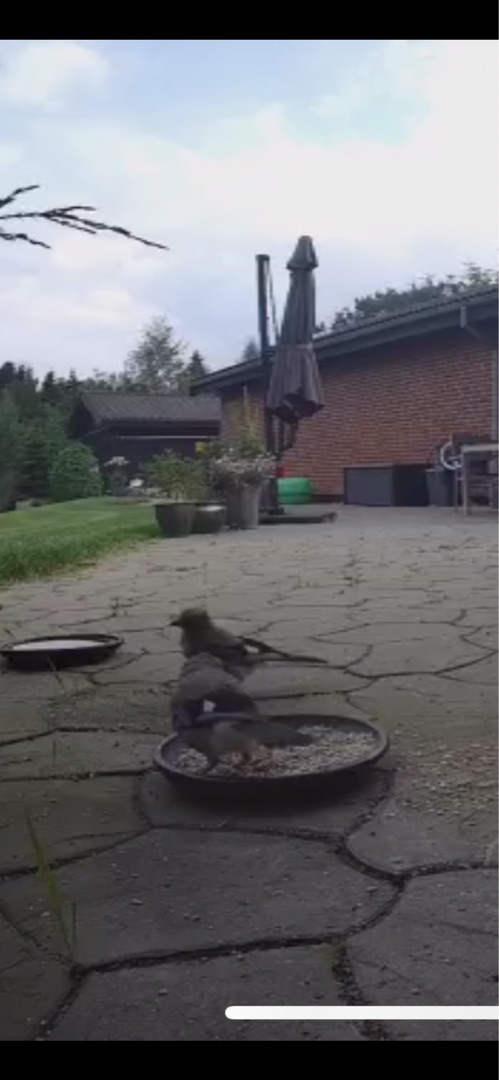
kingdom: Animalia
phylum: Chordata
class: Aves
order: Passeriformes
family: Corvidae
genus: Garrulus
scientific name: Garrulus glandarius
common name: Skovskade
